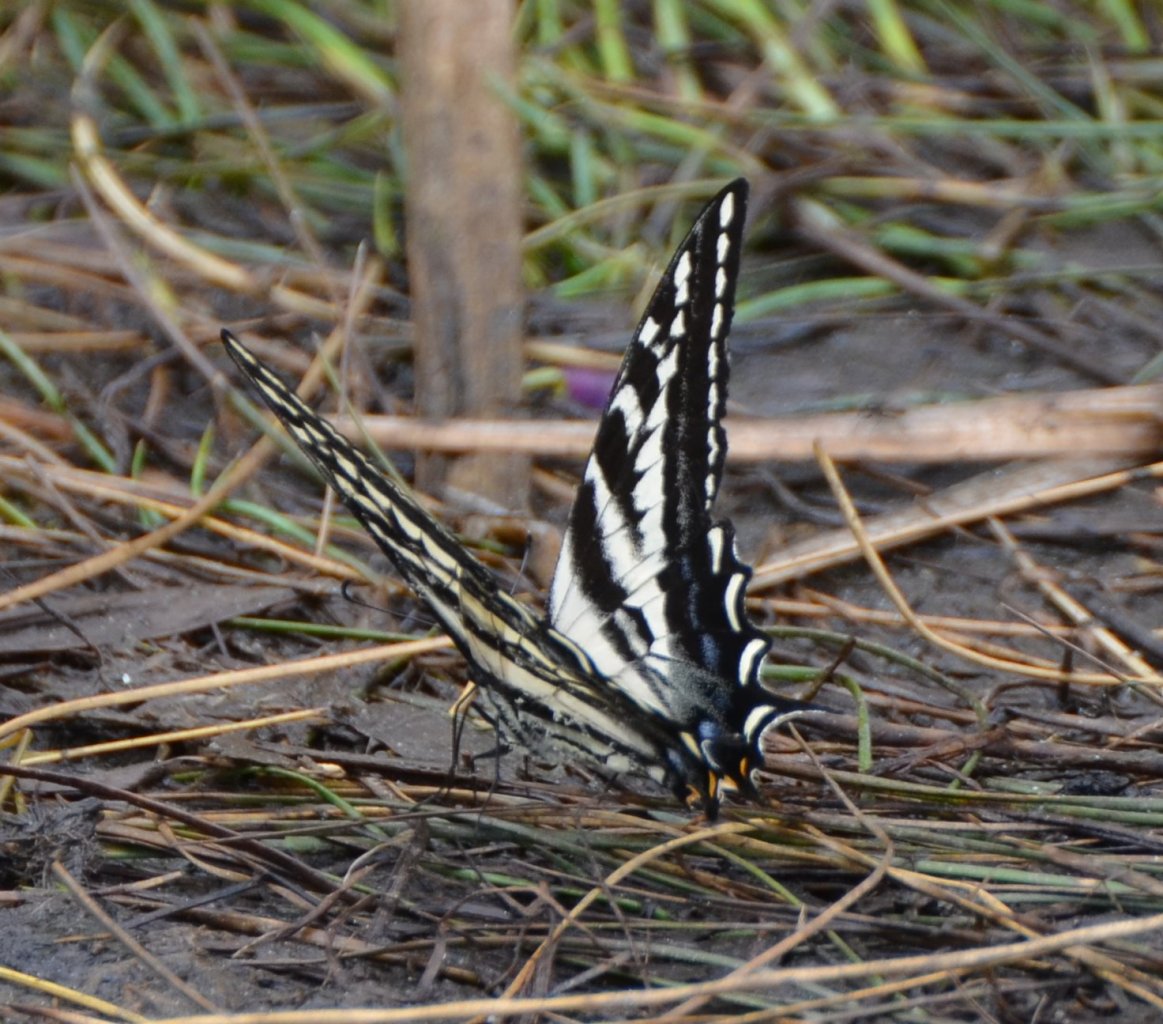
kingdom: Animalia
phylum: Arthropoda
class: Insecta
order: Lepidoptera
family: Papilionidae
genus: Pterourus
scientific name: Pterourus eurymedon
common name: Pale Swallowtail
